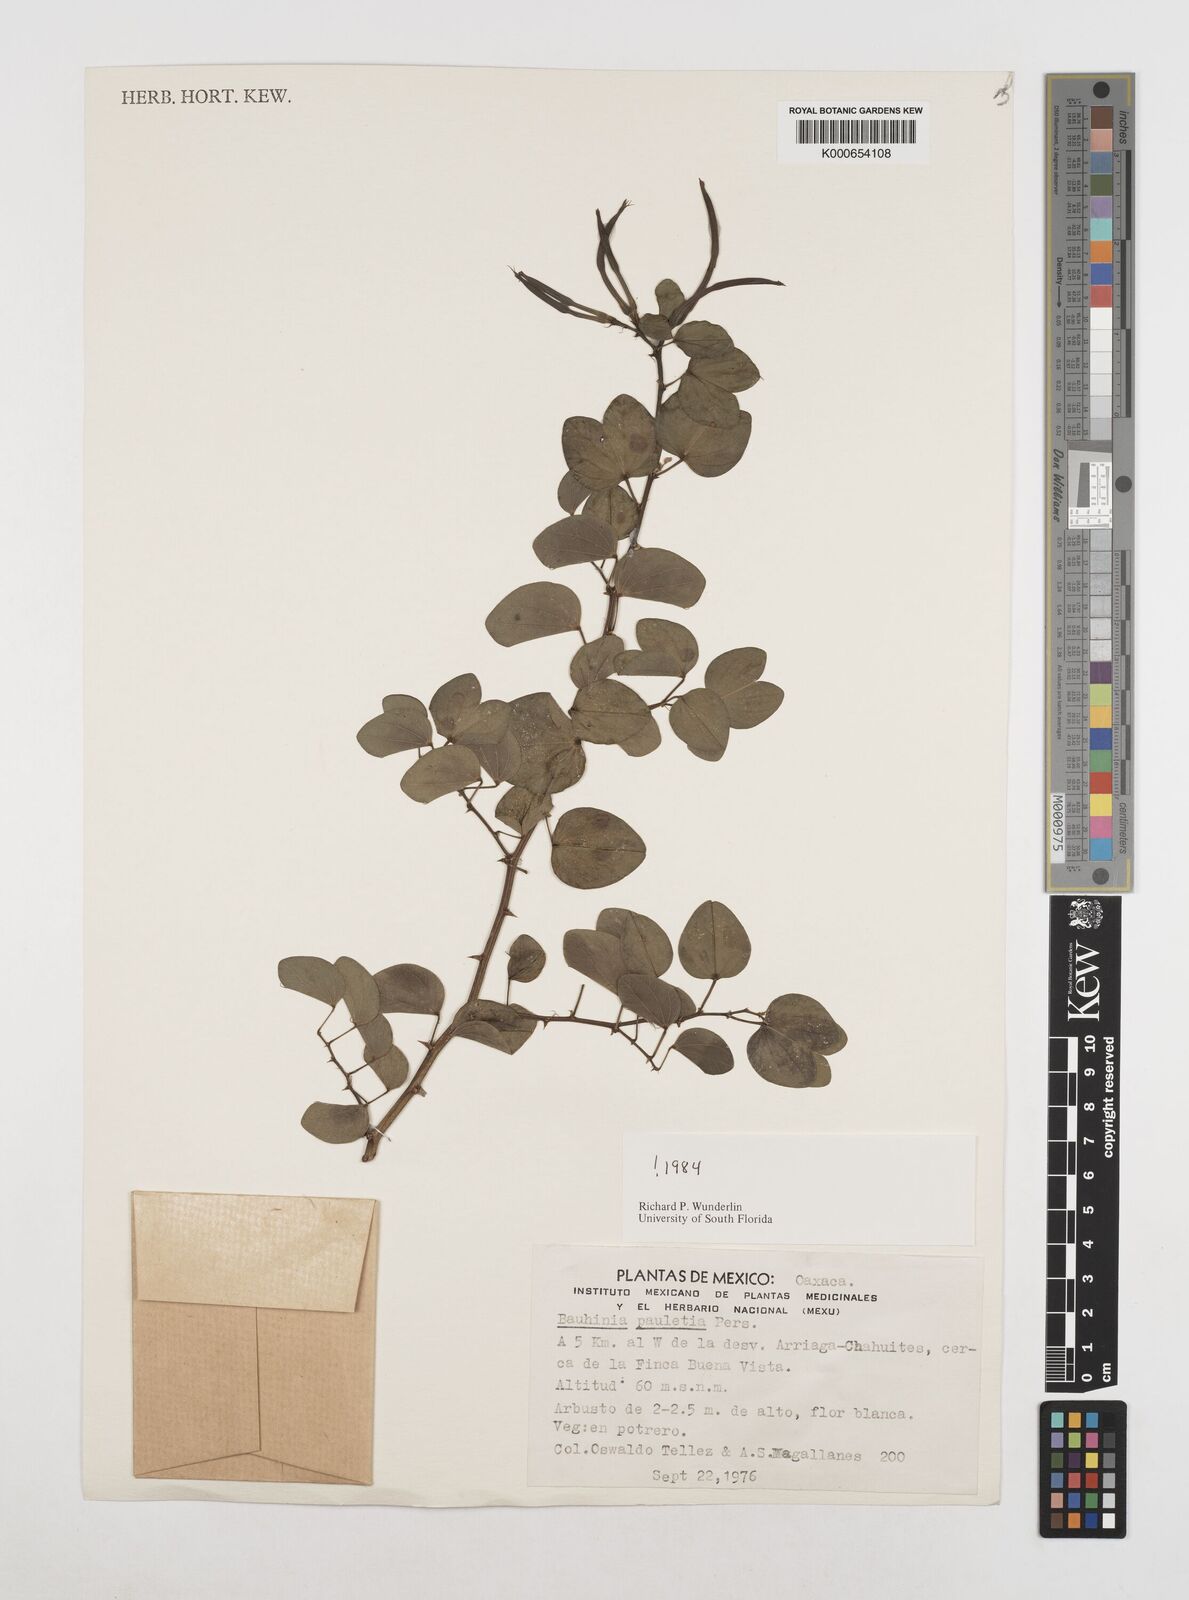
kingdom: Plantae
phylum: Tracheophyta
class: Magnoliopsida
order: Fabales
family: Fabaceae
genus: Bauhinia
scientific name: Bauhinia pauletia
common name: Railway-fence bauhinia
